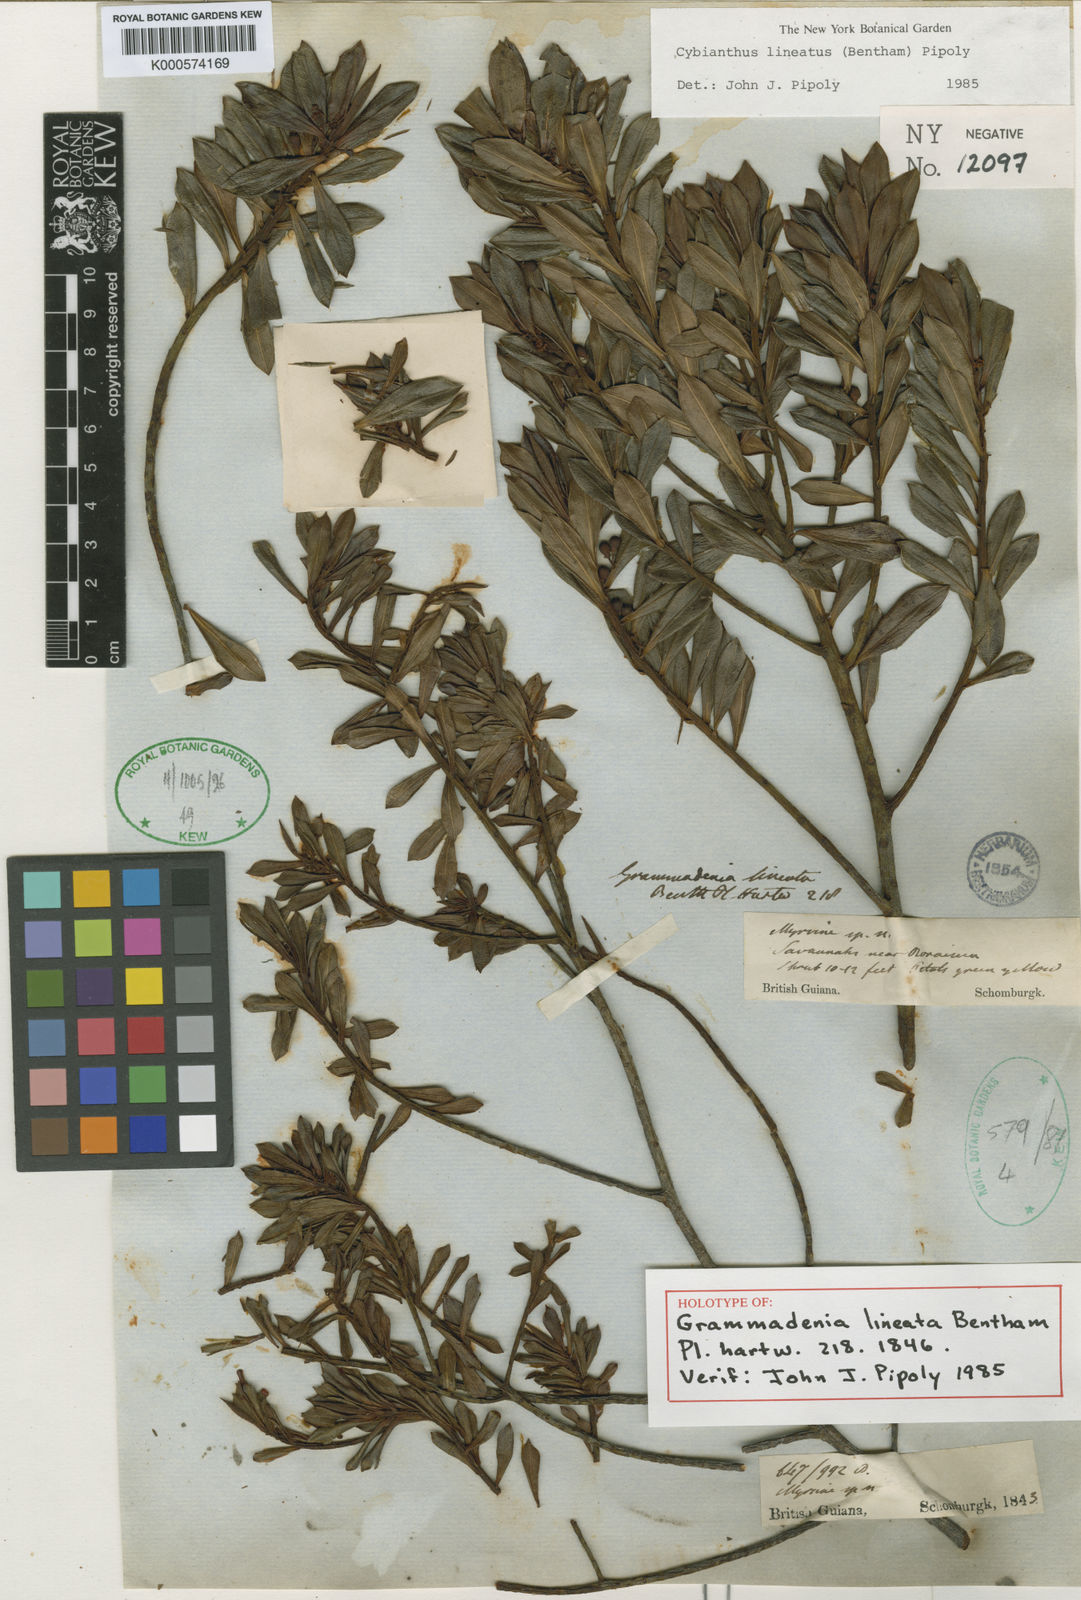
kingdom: Plantae
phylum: Tracheophyta
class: Magnoliopsida
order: Ericales
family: Primulaceae
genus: Cybianthus
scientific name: Cybianthus lineatus
